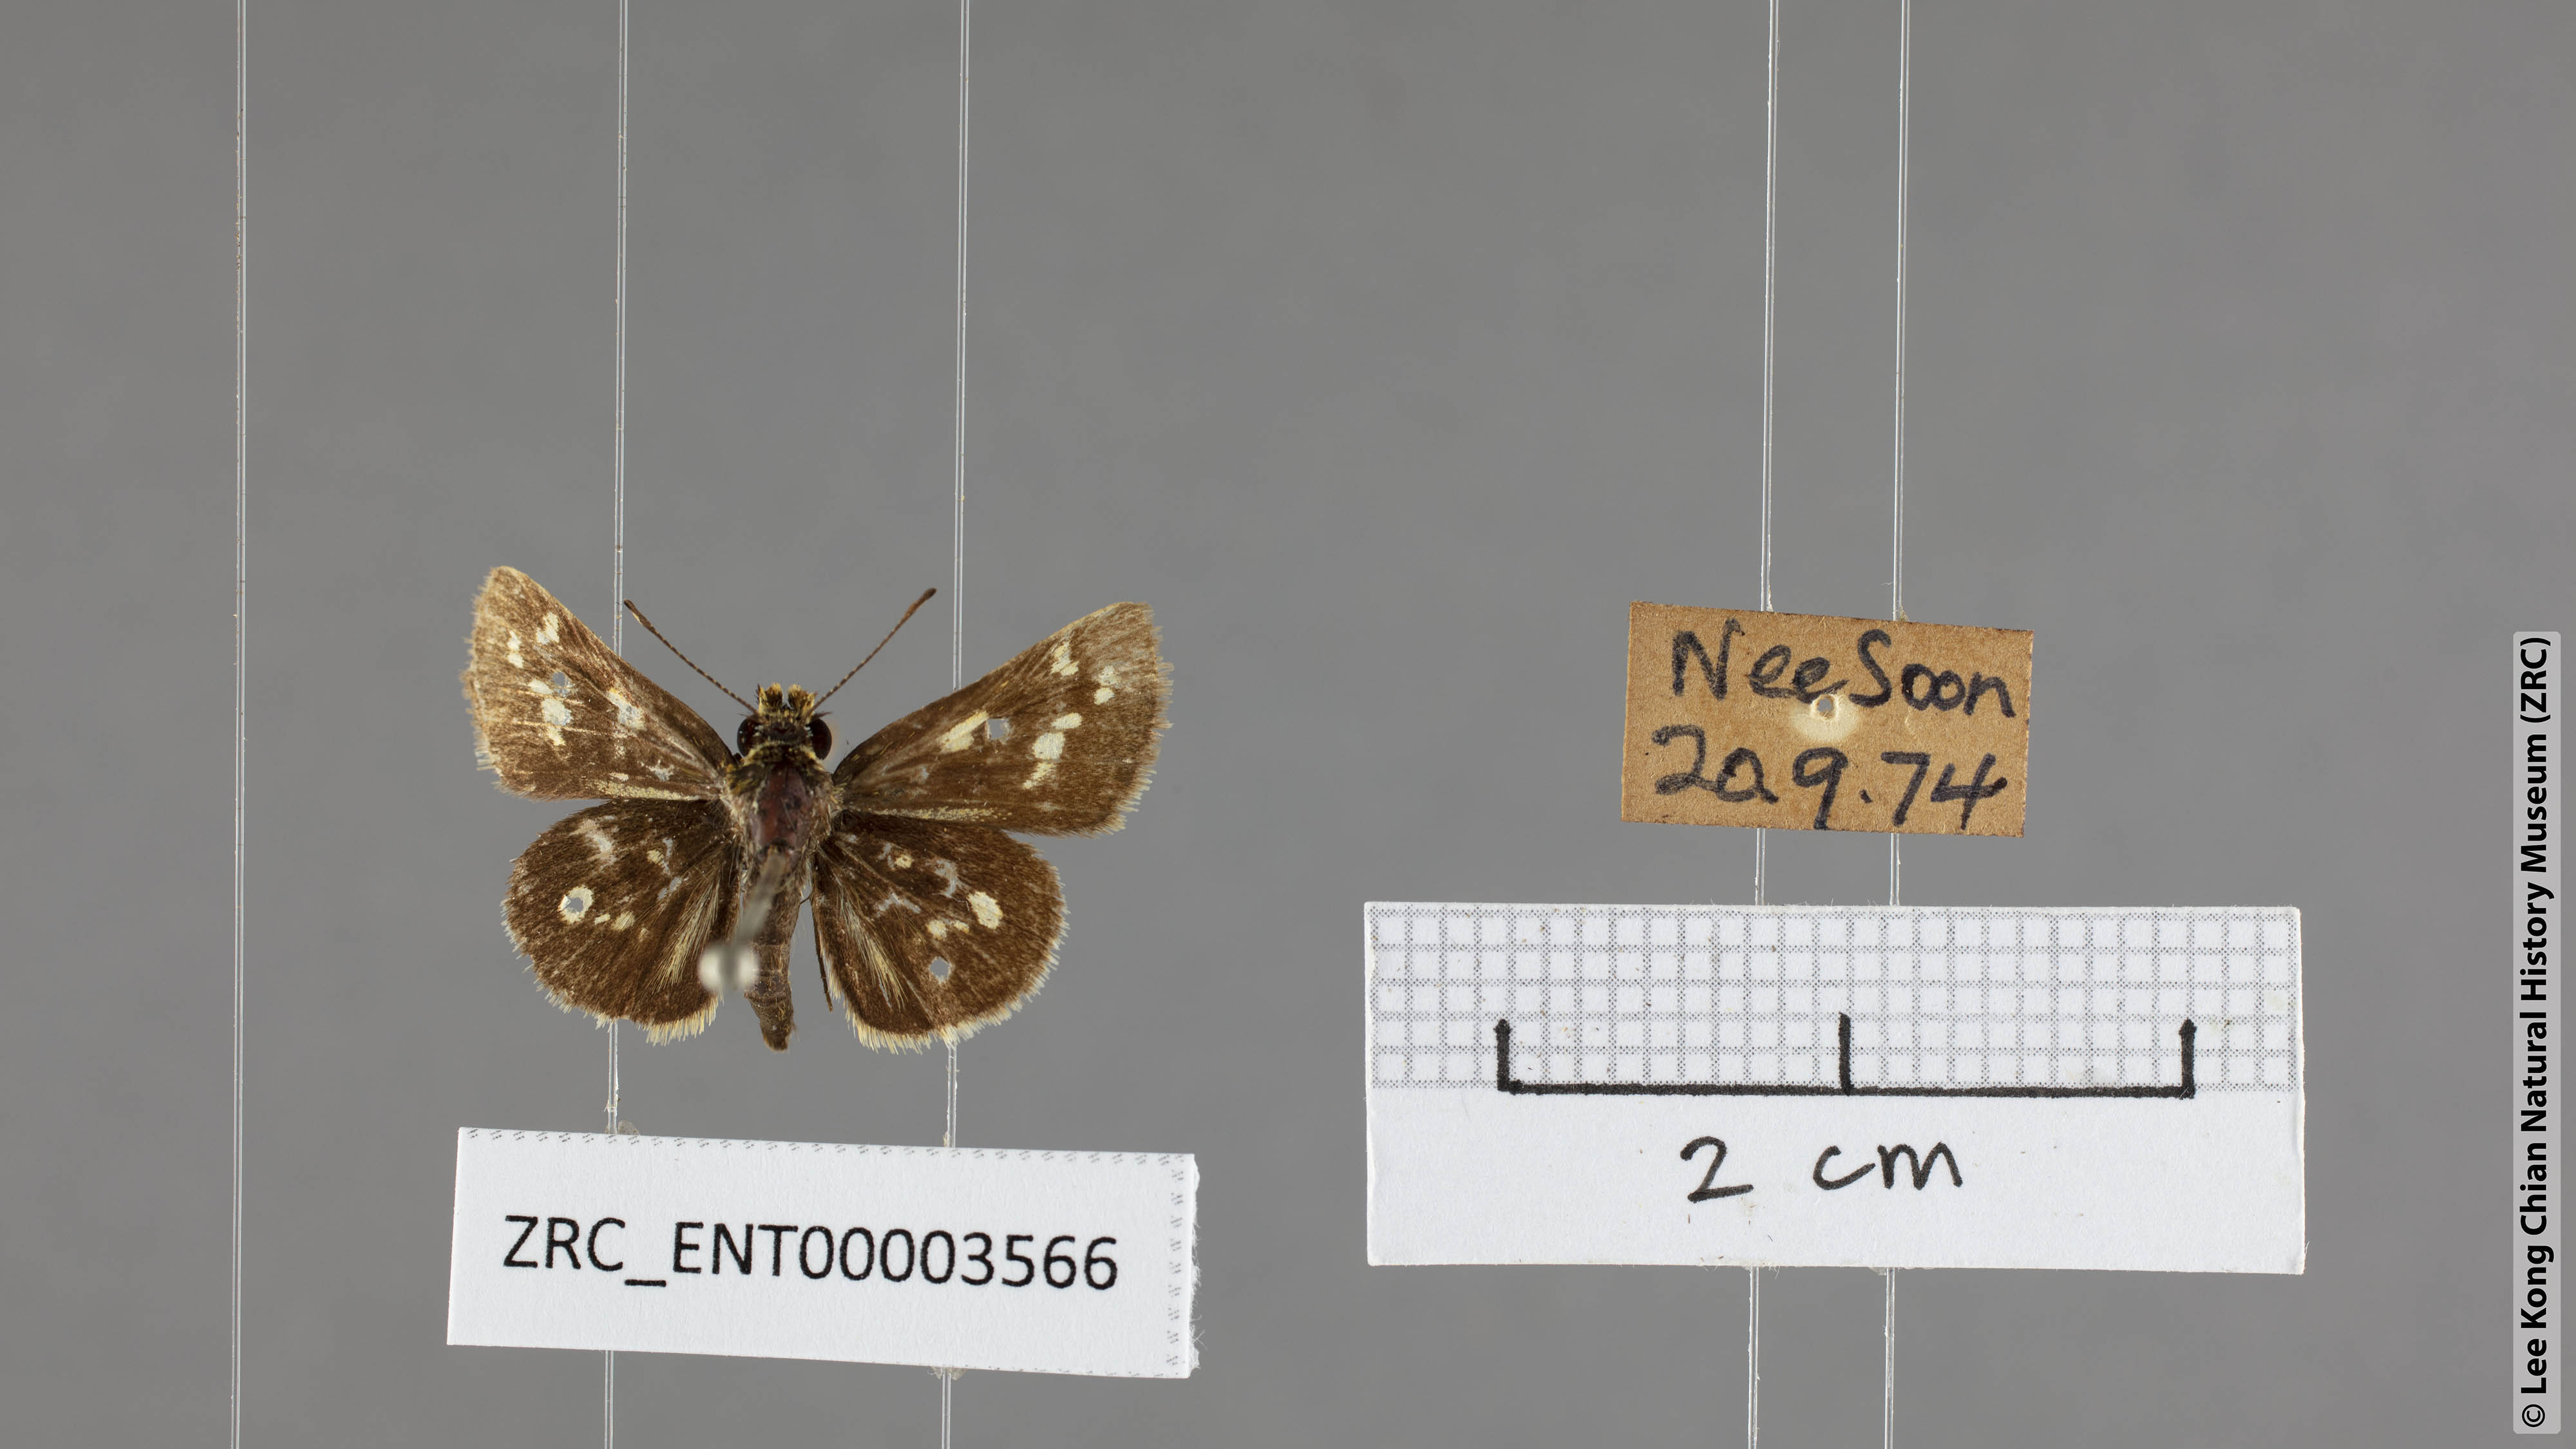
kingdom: Animalia
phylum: Arthropoda
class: Insecta
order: Lepidoptera
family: Hesperiidae
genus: Taractrocera
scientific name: Taractrocera ardonia
